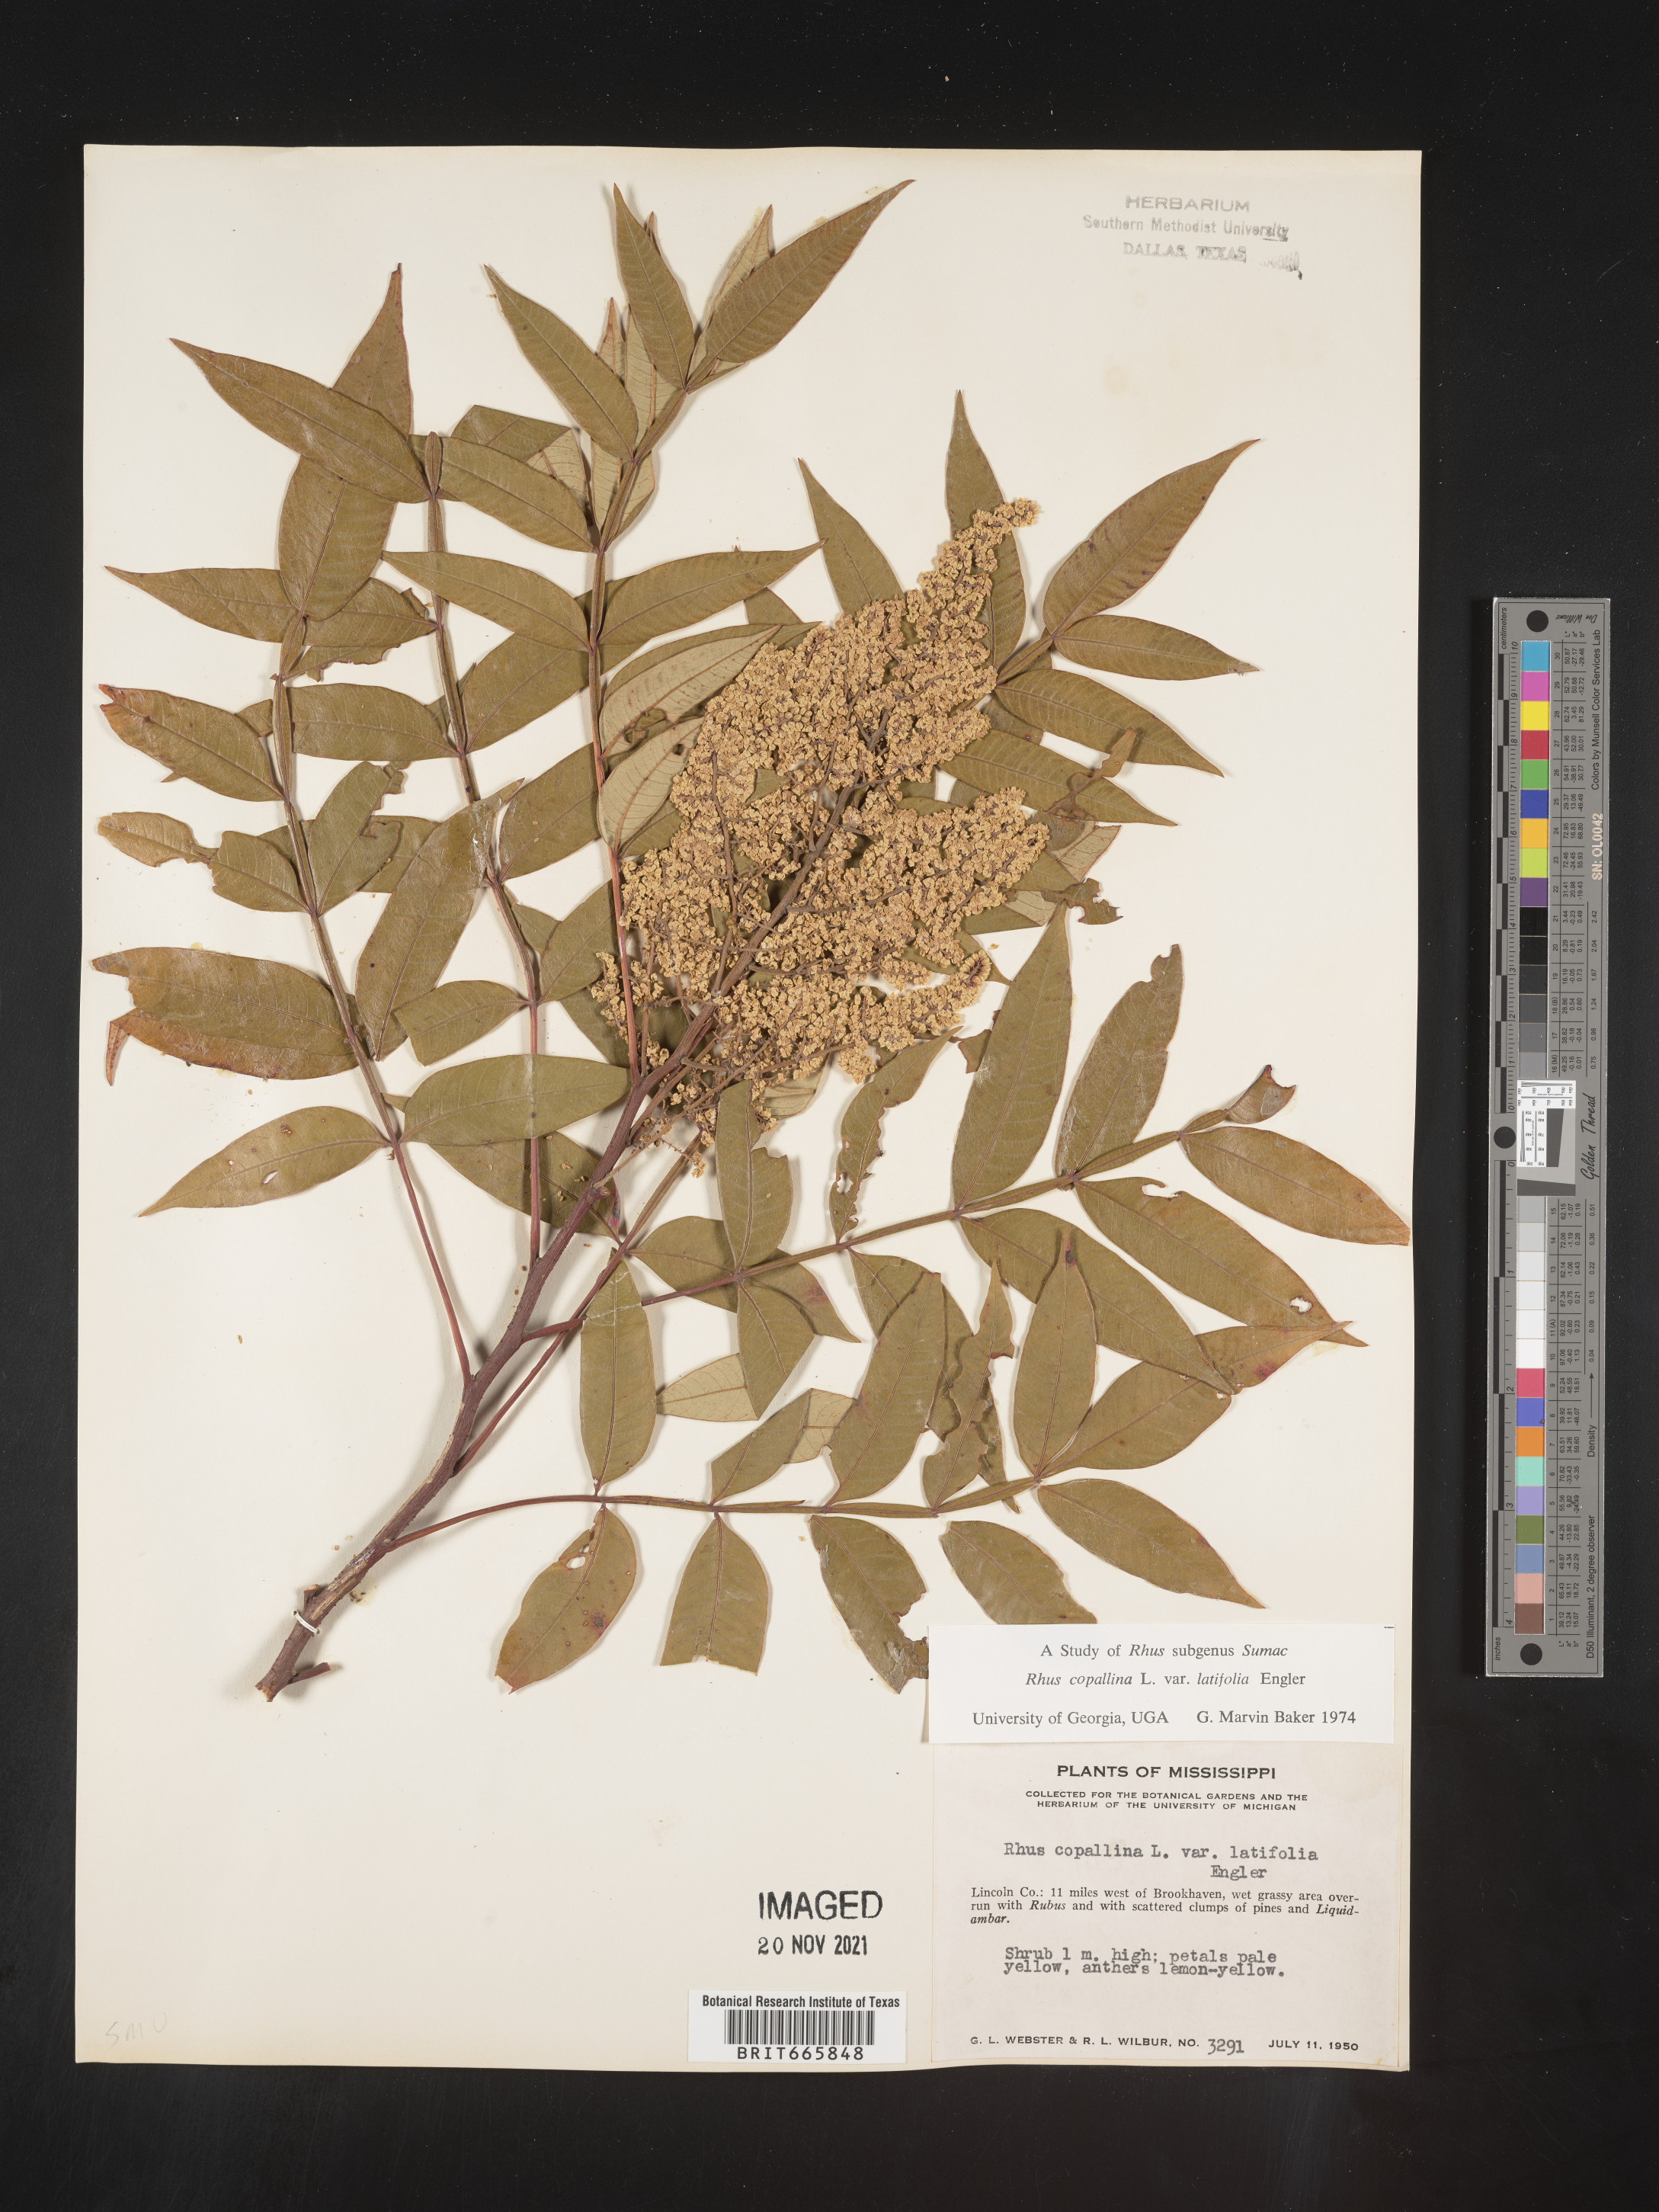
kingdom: Plantae
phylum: Tracheophyta
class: Magnoliopsida
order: Sapindales
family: Anacardiaceae
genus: Rhus
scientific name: Rhus copallina
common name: Shining sumac
